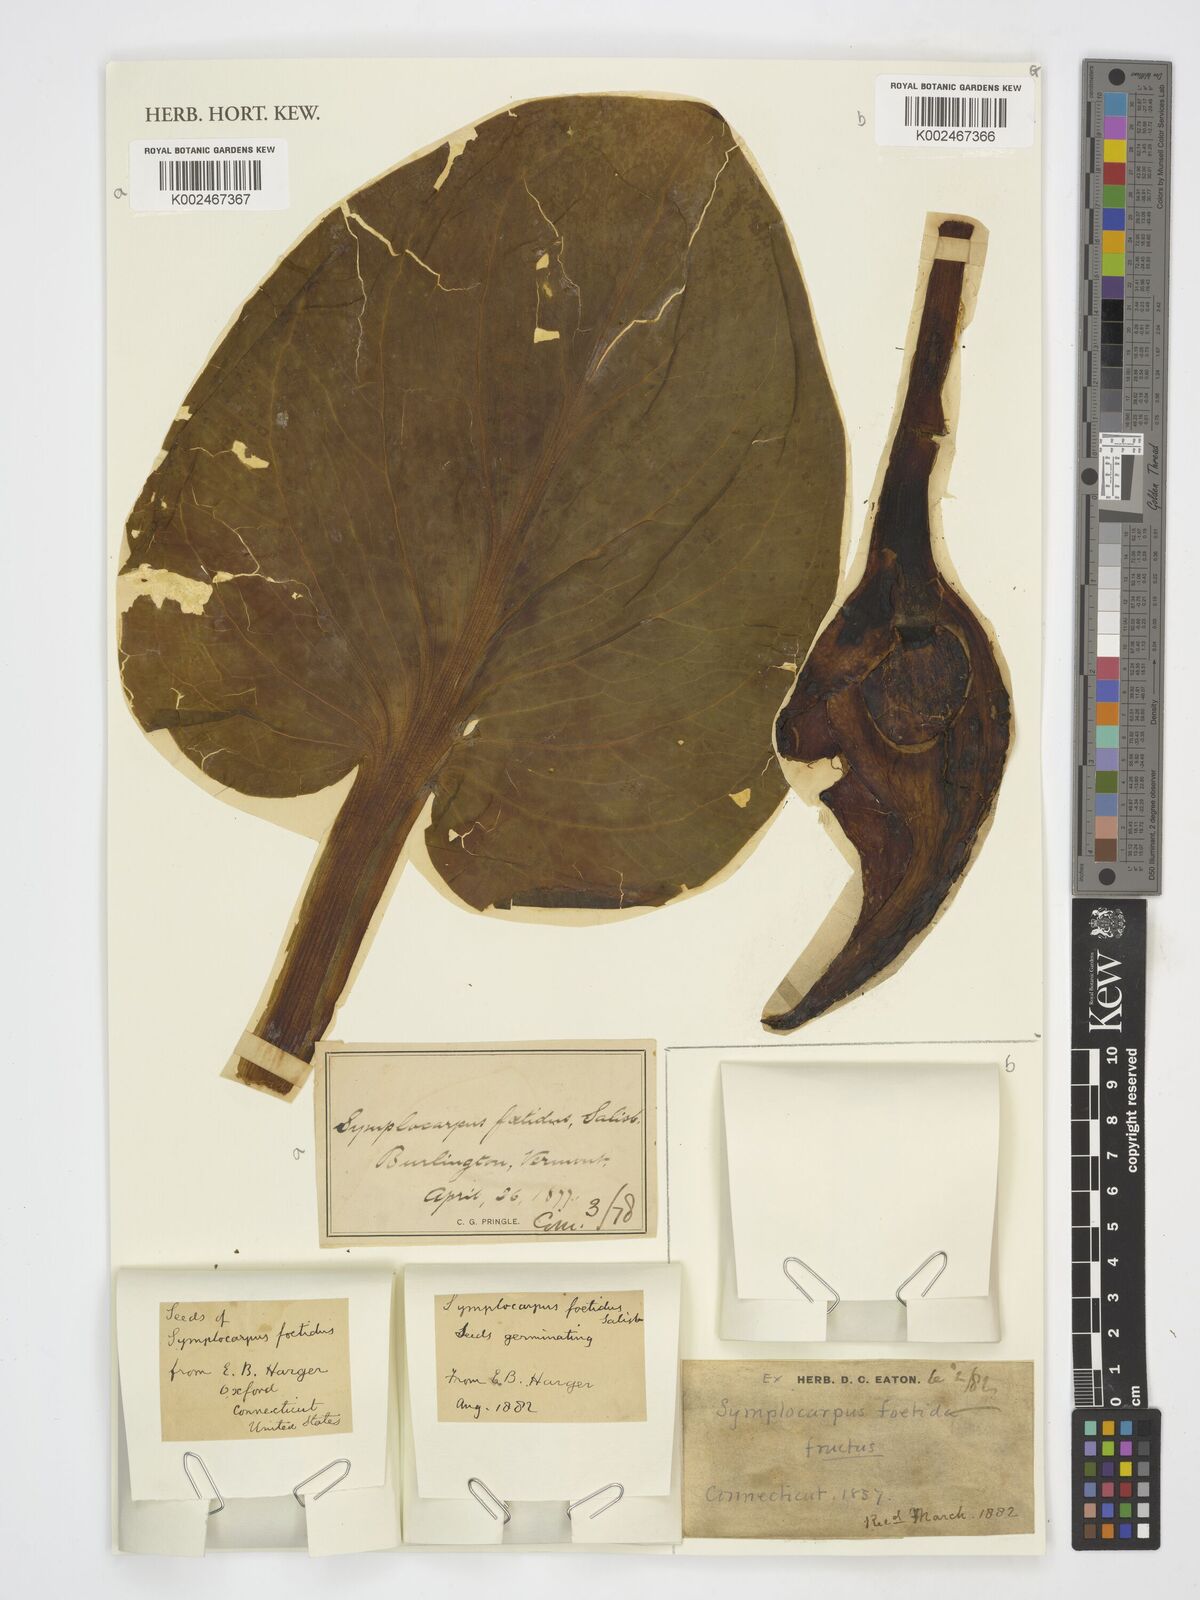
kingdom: Plantae
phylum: Tracheophyta
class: Liliopsida
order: Alismatales
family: Araceae
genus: Symplocarpus
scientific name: Symplocarpus
